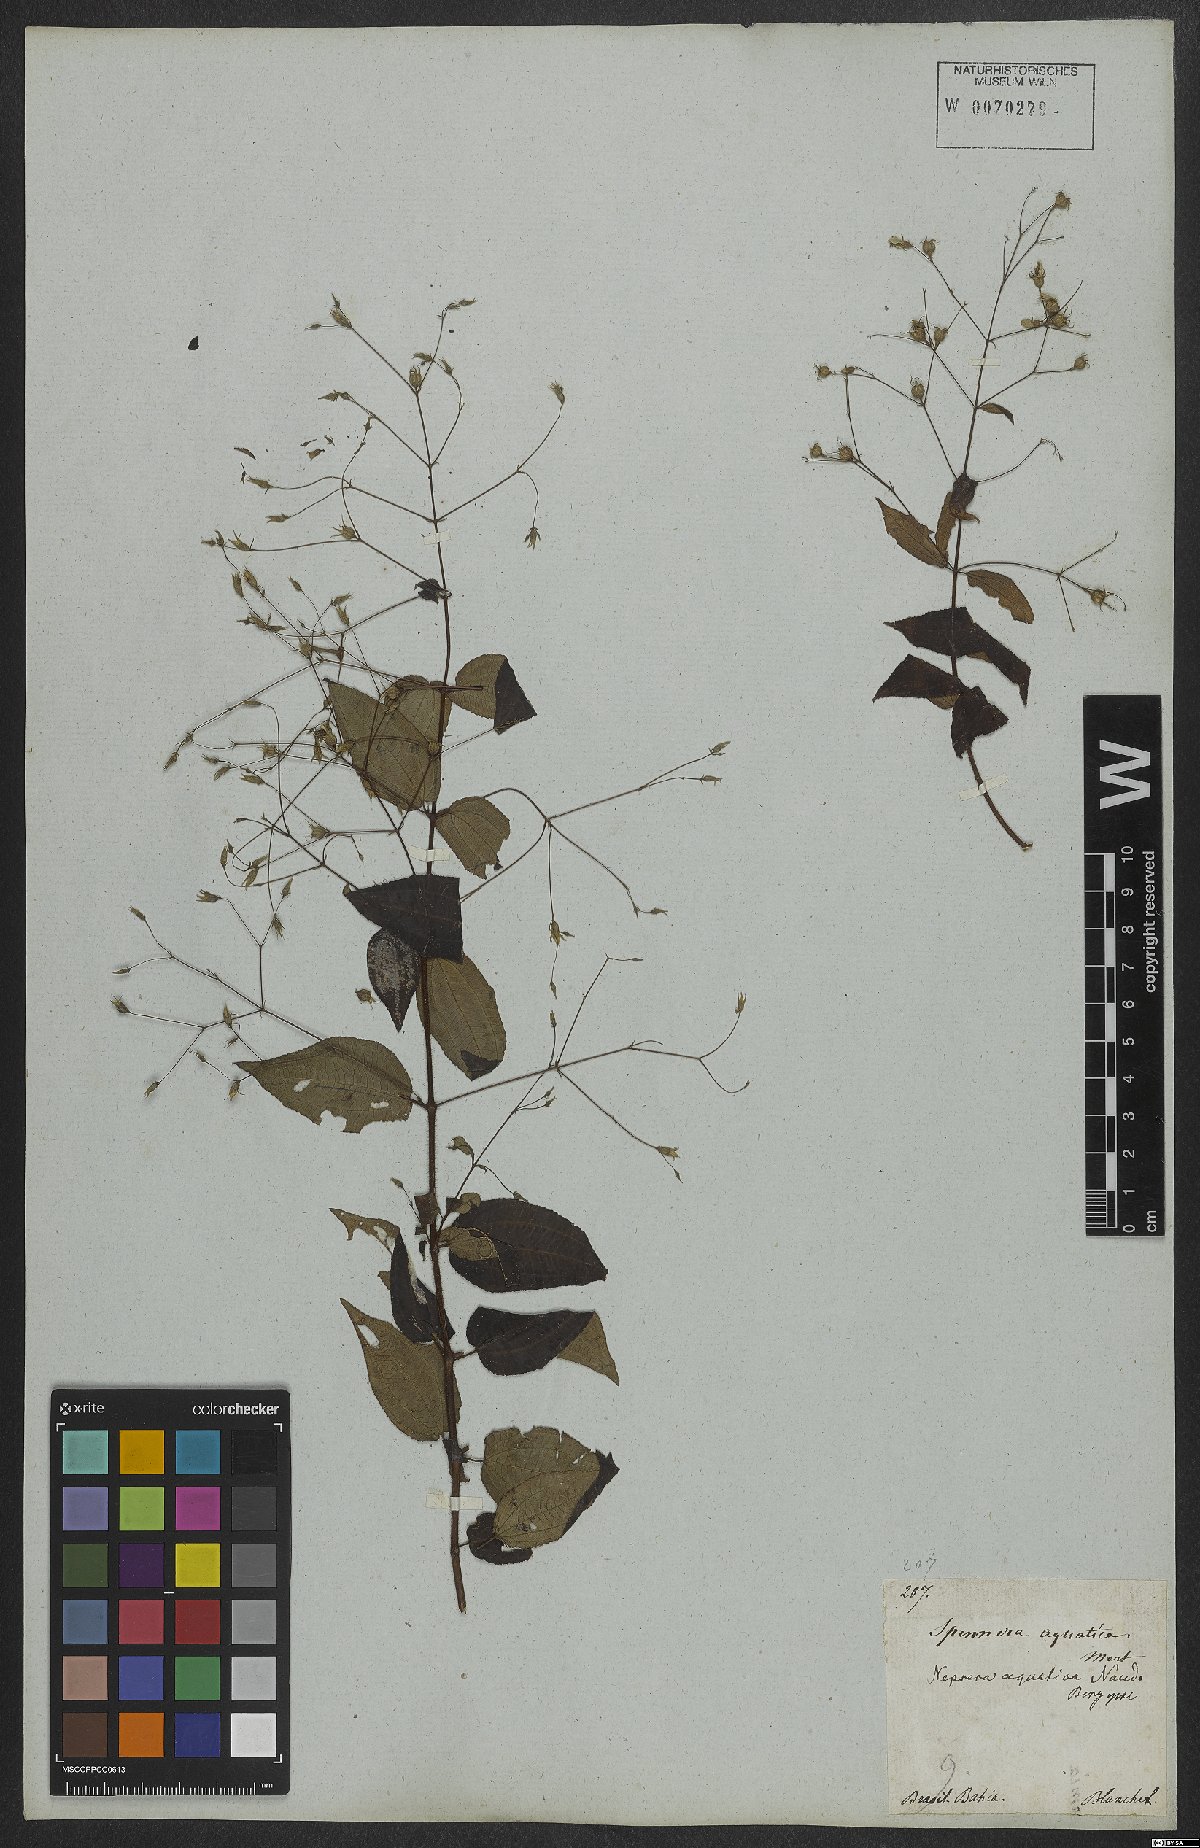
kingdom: Plantae
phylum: Tracheophyta
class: Magnoliopsida
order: Myrtales
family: Melastomataceae
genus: Nepsera
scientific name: Nepsera aquatica
